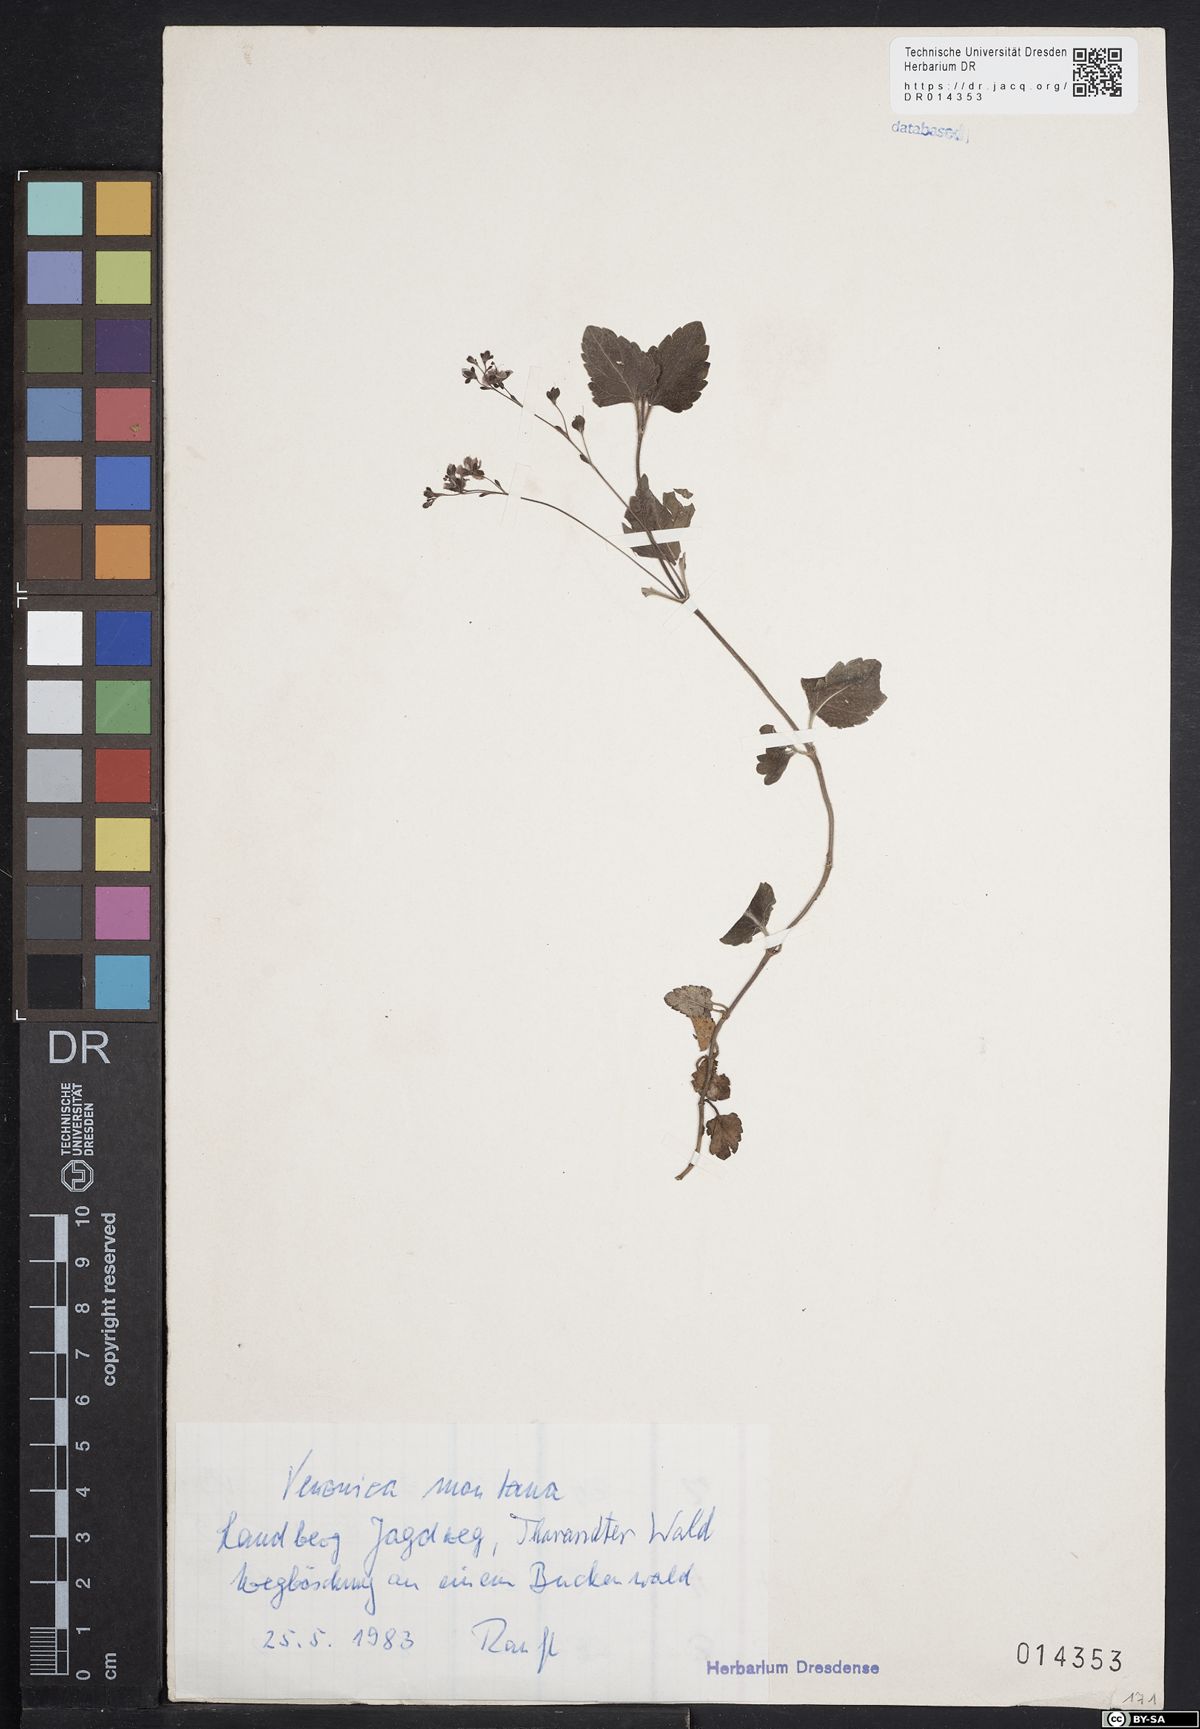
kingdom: Plantae
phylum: Tracheophyta
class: Magnoliopsida
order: Lamiales
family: Plantaginaceae
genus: Veronica
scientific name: Veronica montana
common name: Wood speedwell
